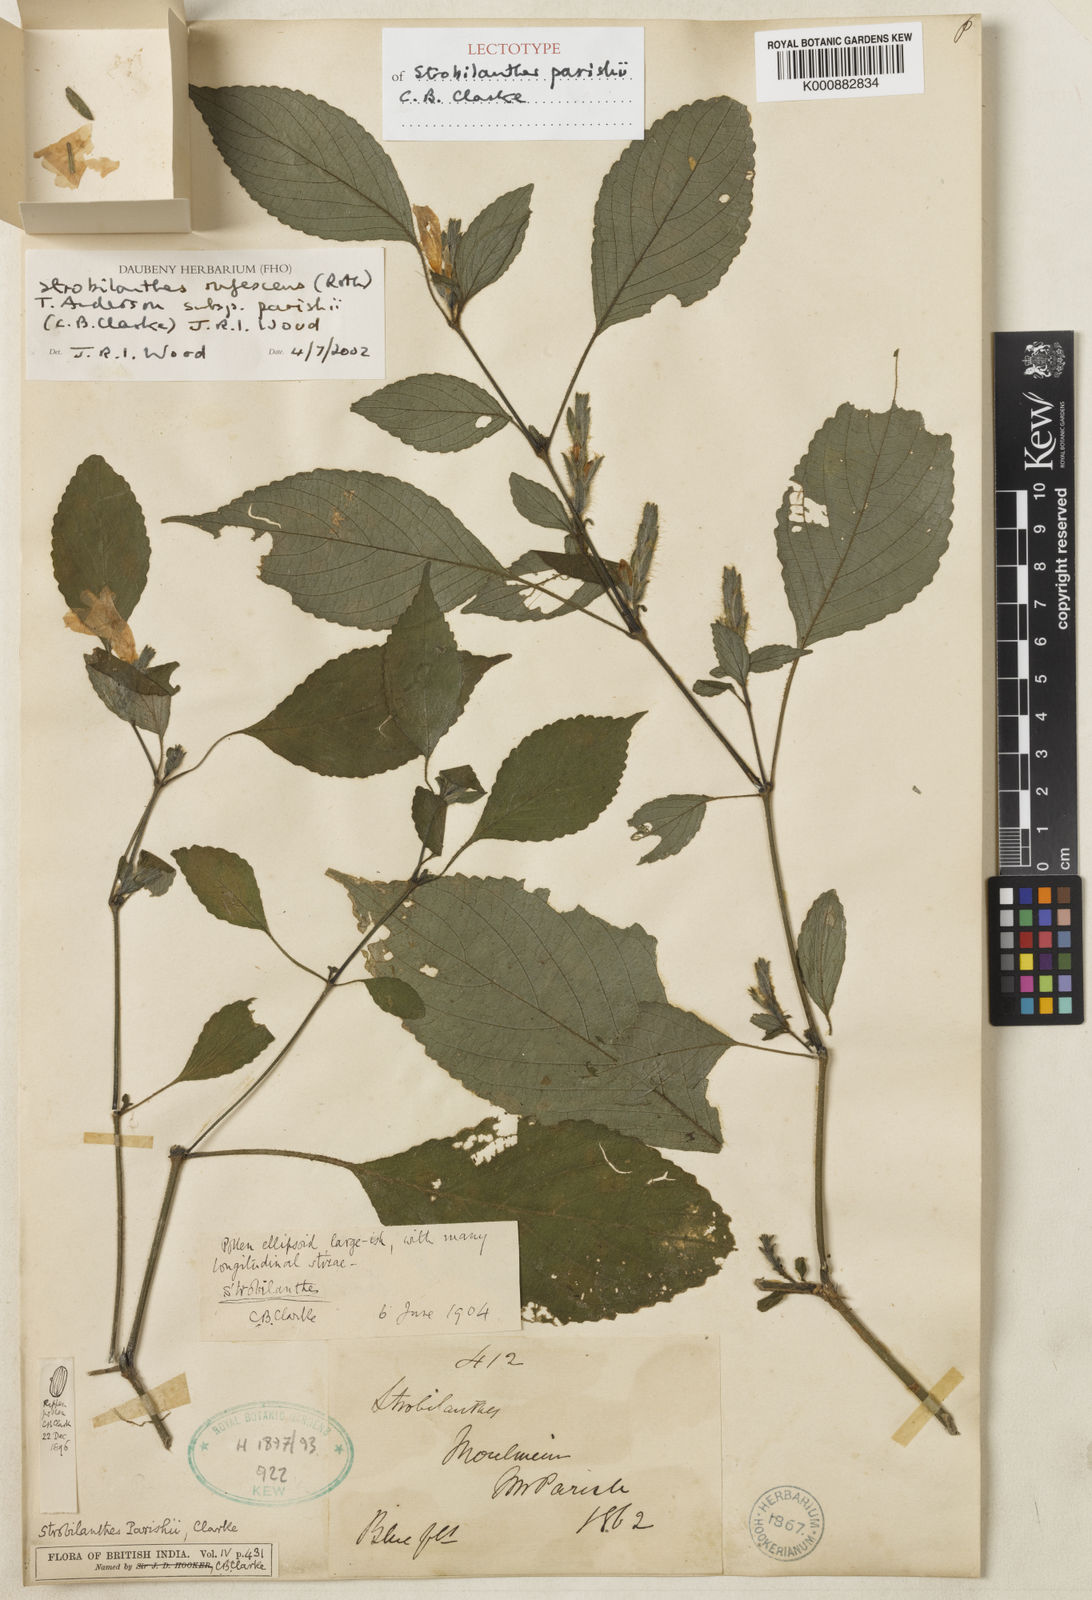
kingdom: Plantae
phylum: Tracheophyta
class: Magnoliopsida
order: Lamiales
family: Acanthaceae
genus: Strobilanthes
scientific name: Strobilanthes rufescens
